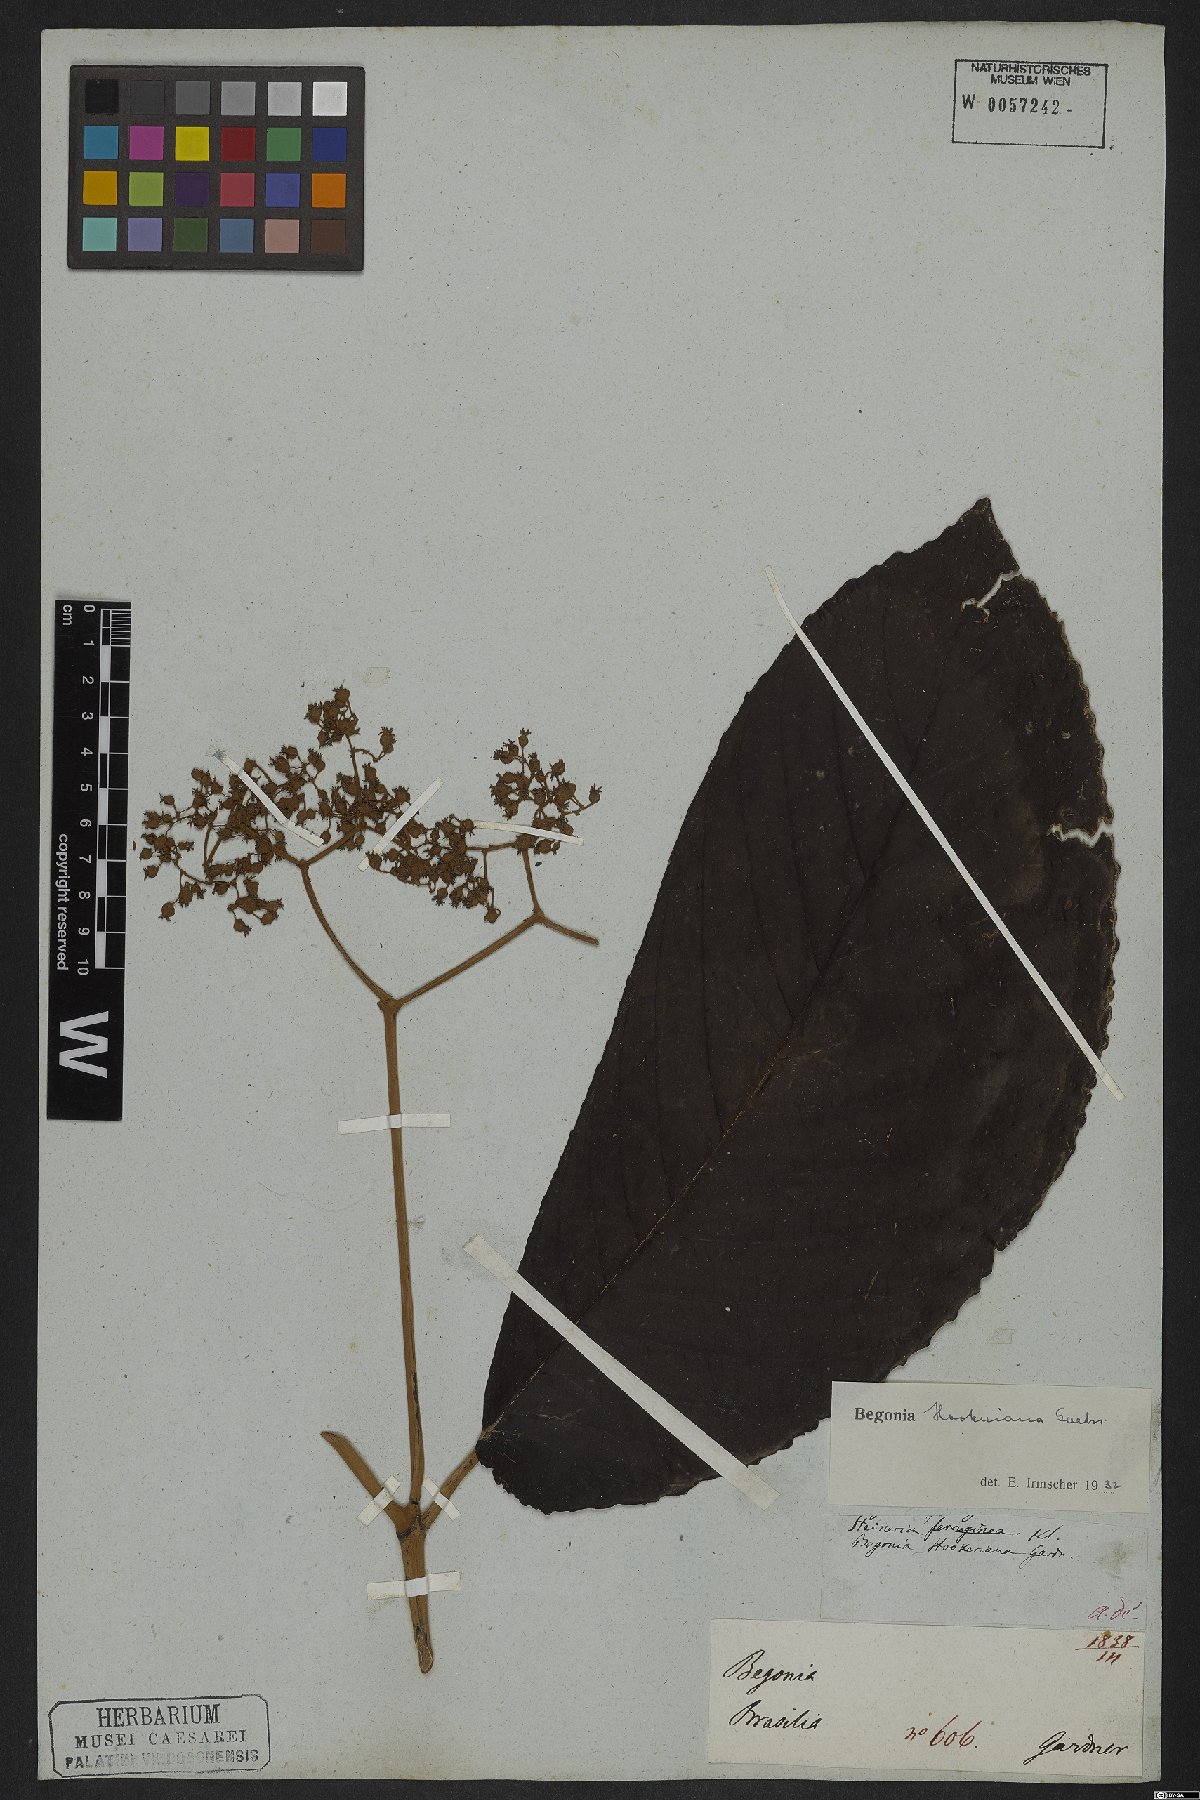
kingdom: Plantae
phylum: Tracheophyta
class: Magnoliopsida
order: Cucurbitales
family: Begoniaceae
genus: Begonia
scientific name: Begonia hookeriana
